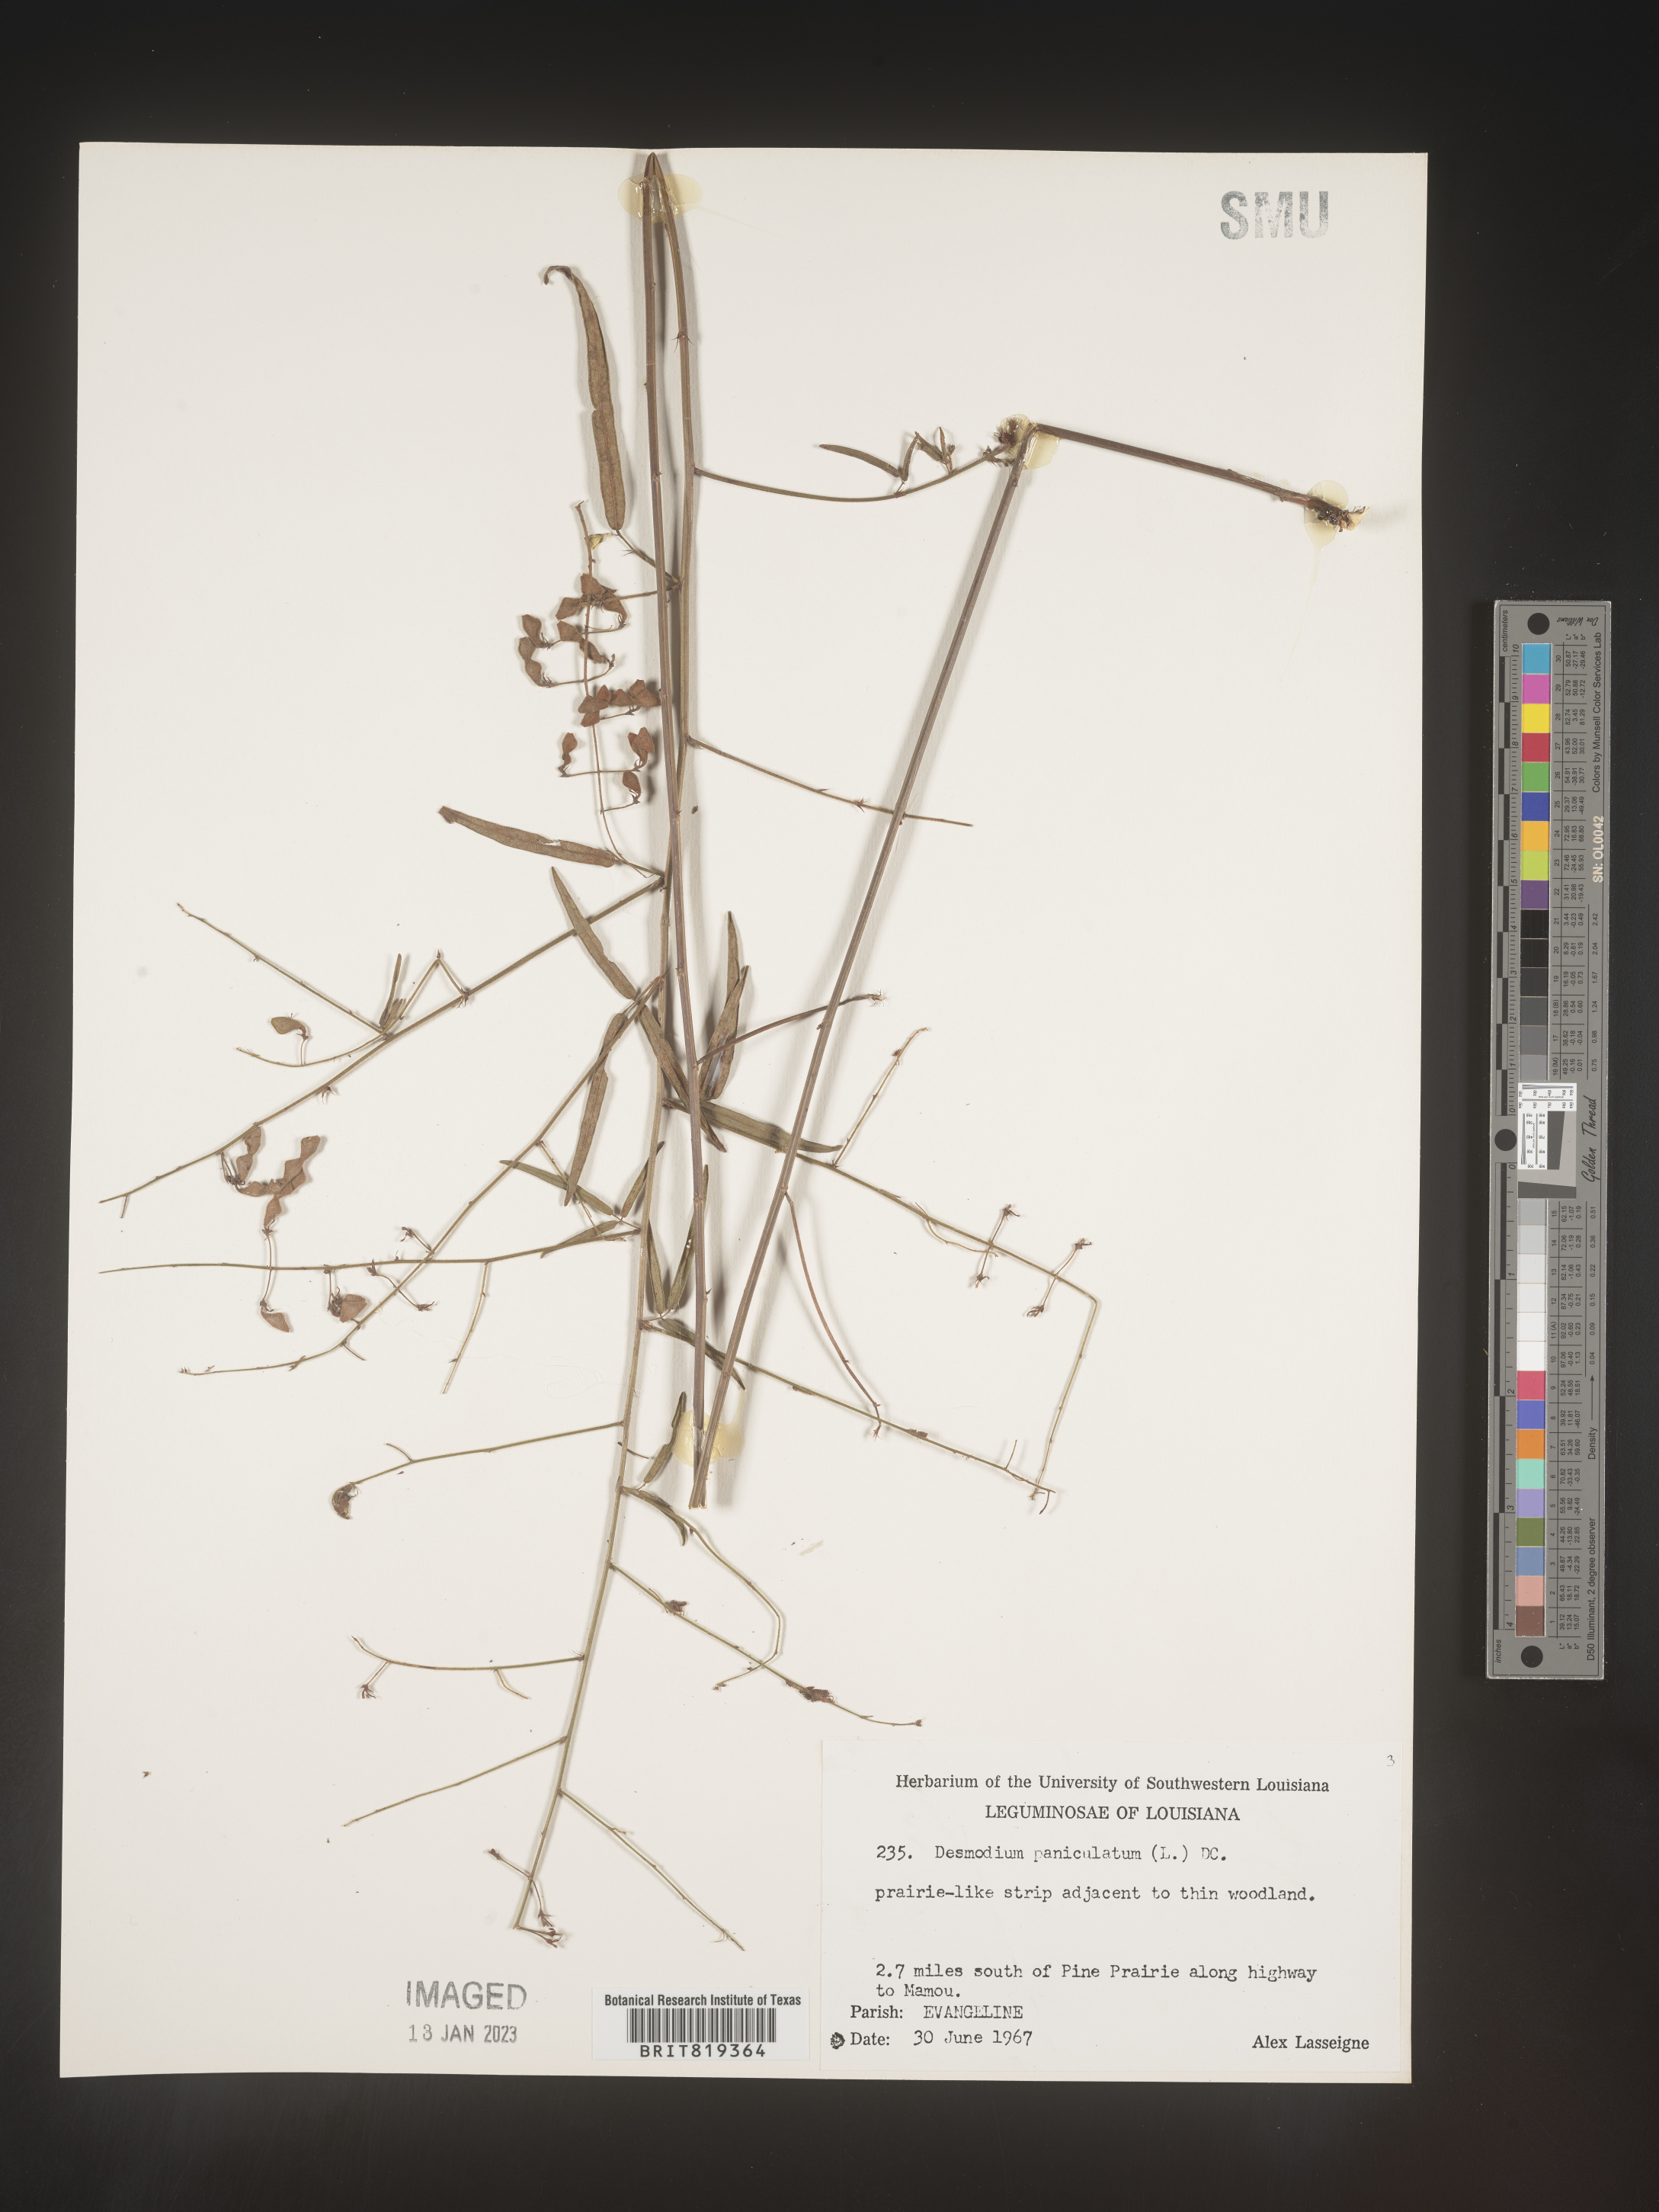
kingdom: Plantae
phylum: Tracheophyta
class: Magnoliopsida
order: Fabales
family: Fabaceae
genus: Desmodium
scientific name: Desmodium paniculatum
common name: Panicled tick-clover
